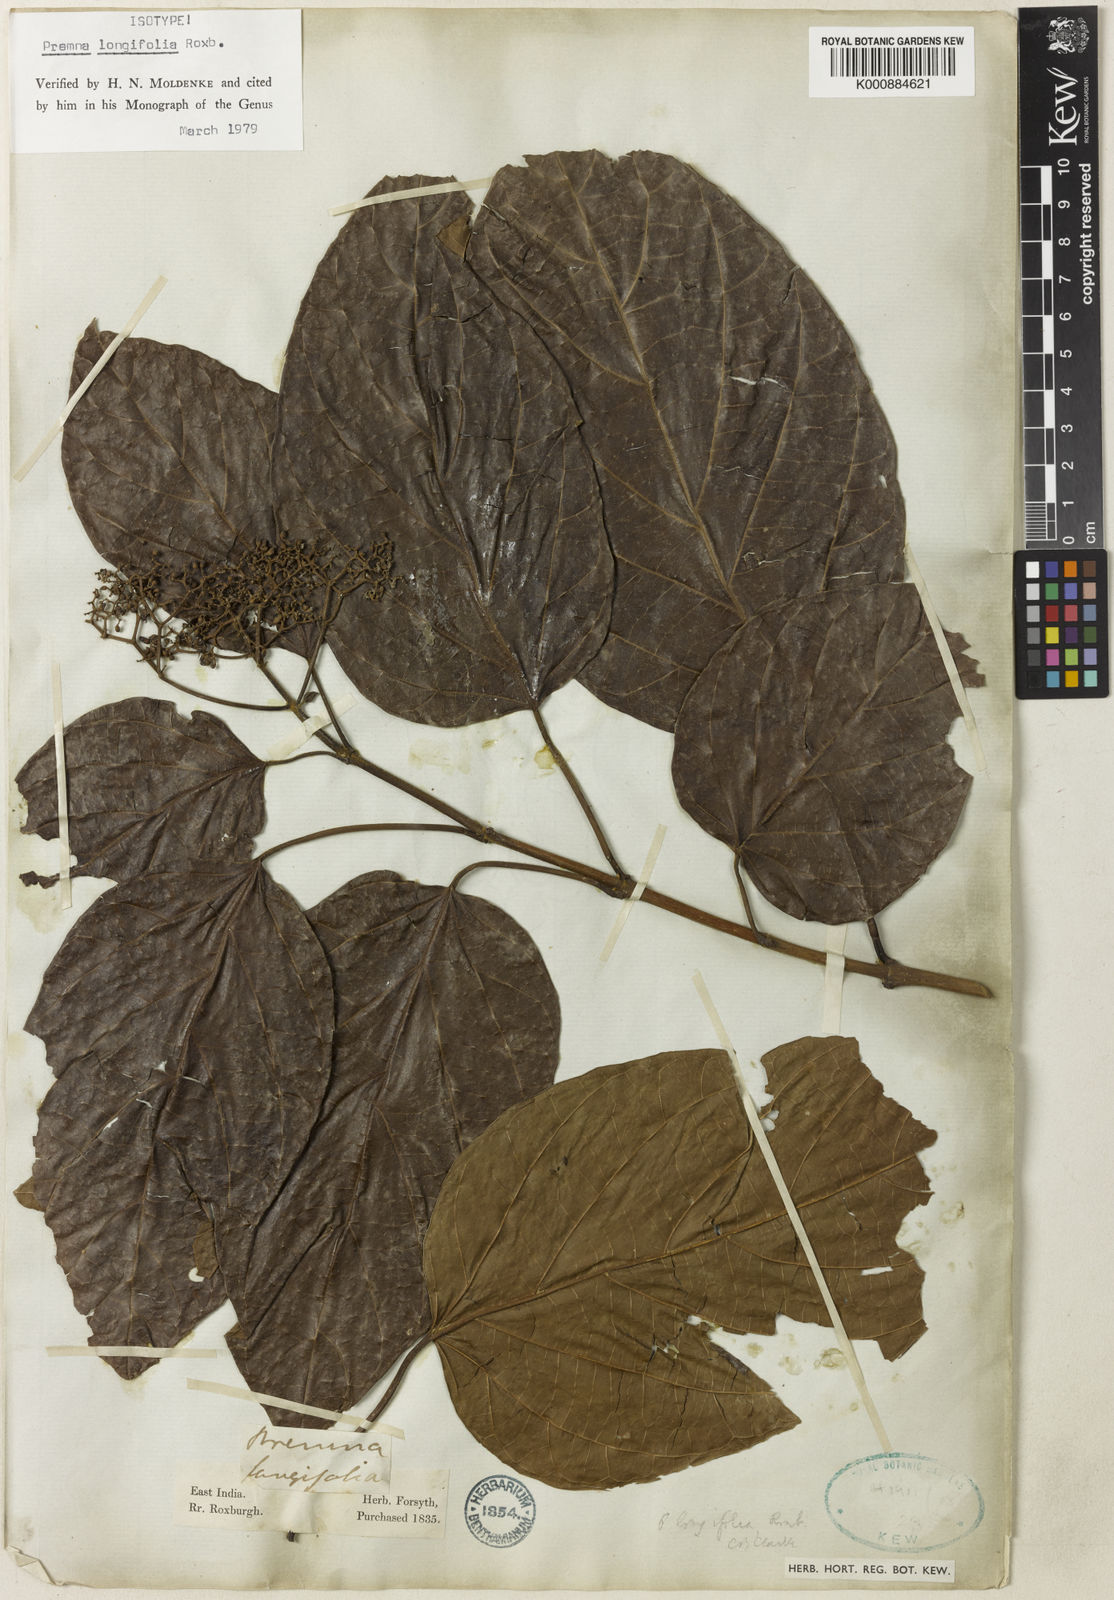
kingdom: Plantae
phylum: Tracheophyta
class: Magnoliopsida
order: Lamiales
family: Lamiaceae
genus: Premna
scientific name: Premna khasiana
